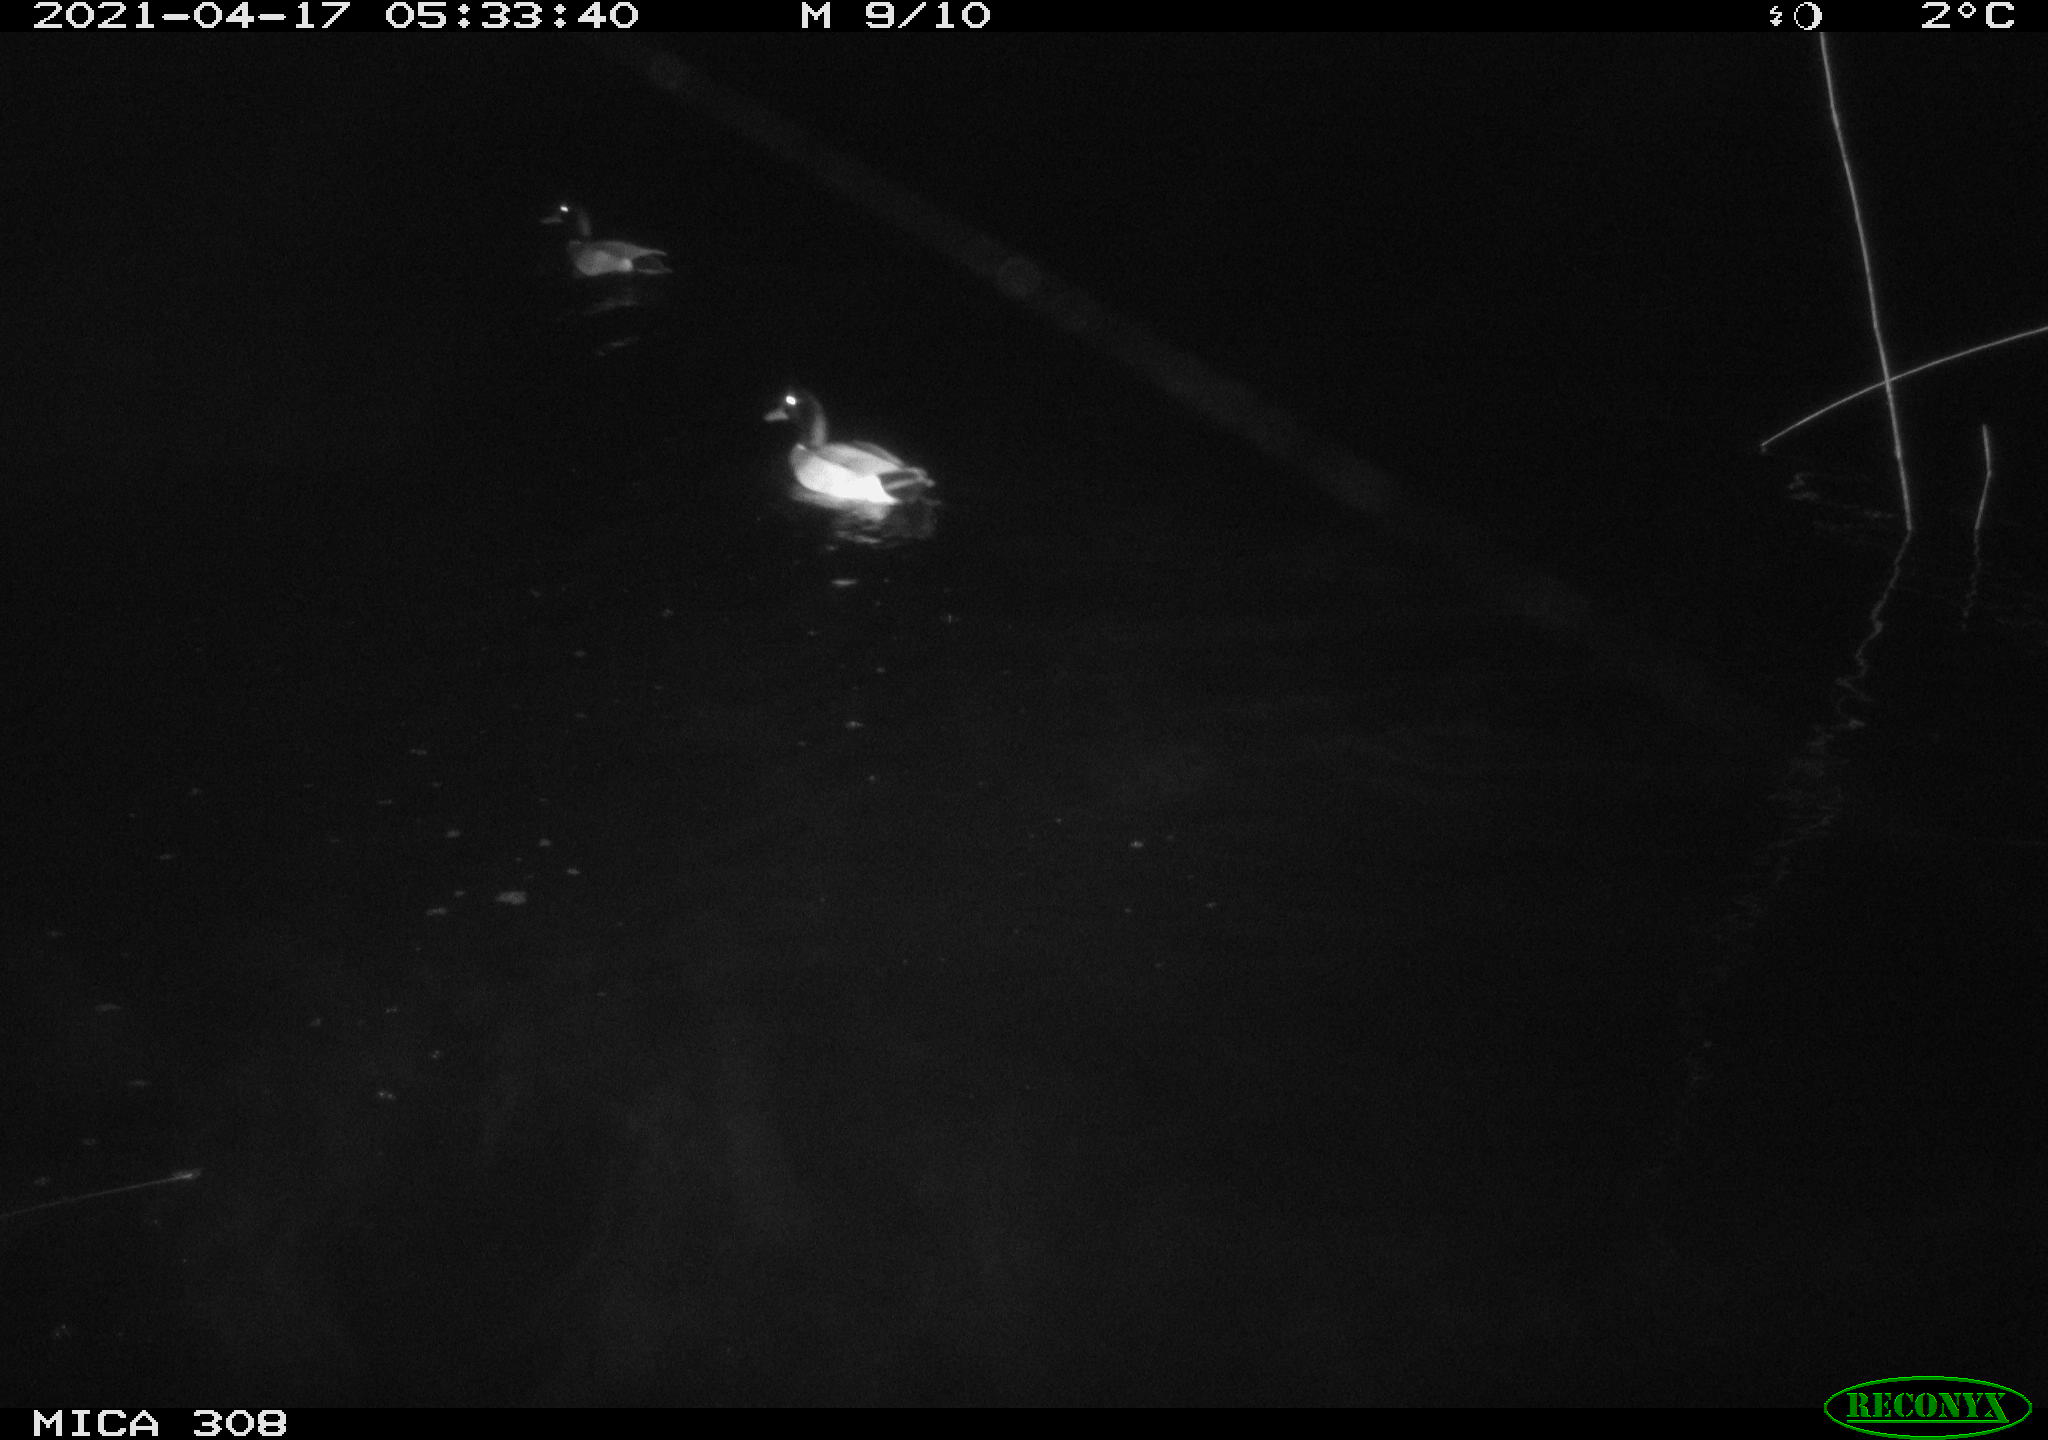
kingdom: Animalia
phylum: Chordata
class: Aves
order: Anseriformes
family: Anatidae
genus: Anas
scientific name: Anas platyrhynchos
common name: Mallard
